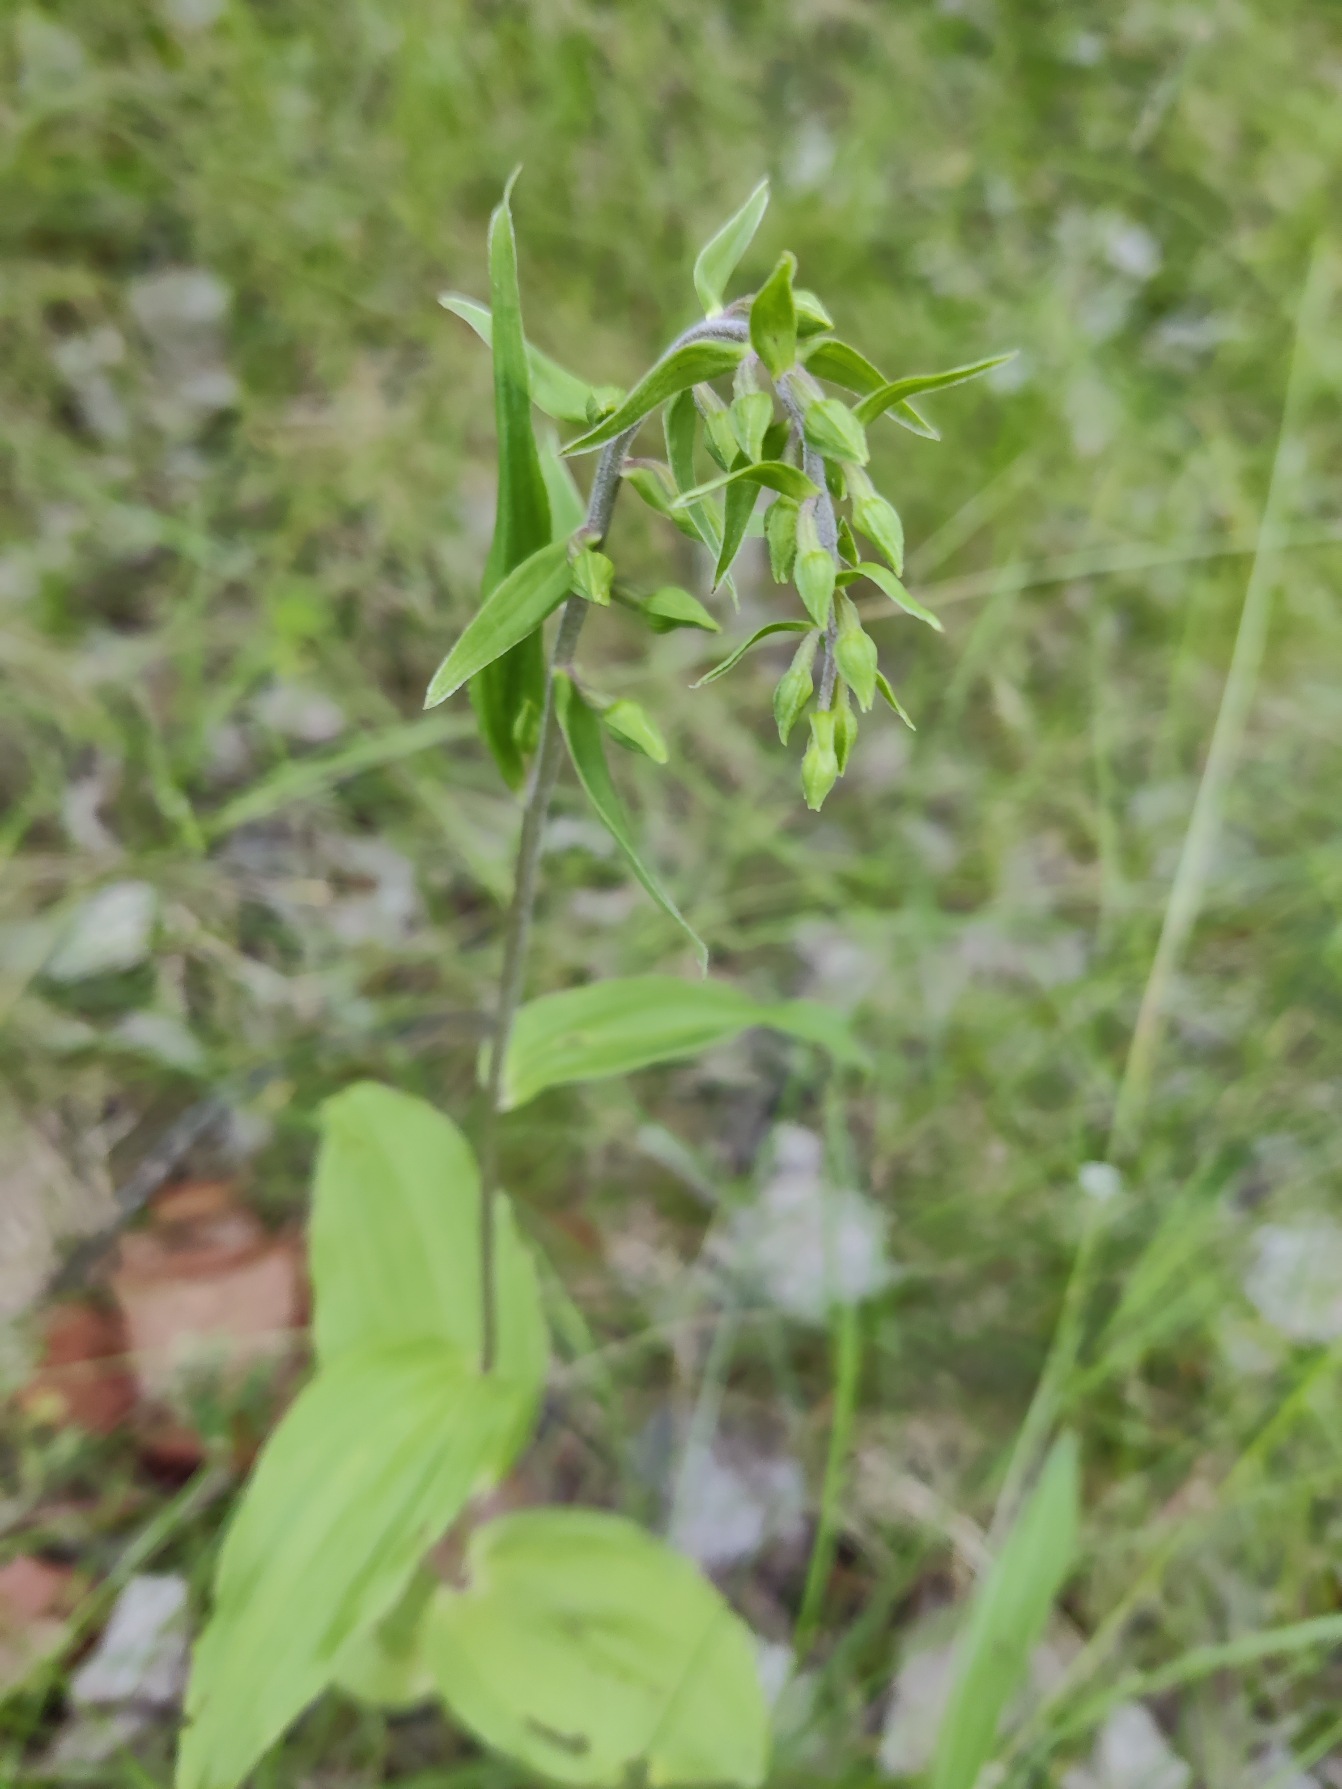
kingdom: Plantae
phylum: Tracheophyta
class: Liliopsida
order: Asparagales
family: Orchidaceae
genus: Epipactis
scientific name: Epipactis helleborine
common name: Skov-hullæbe
